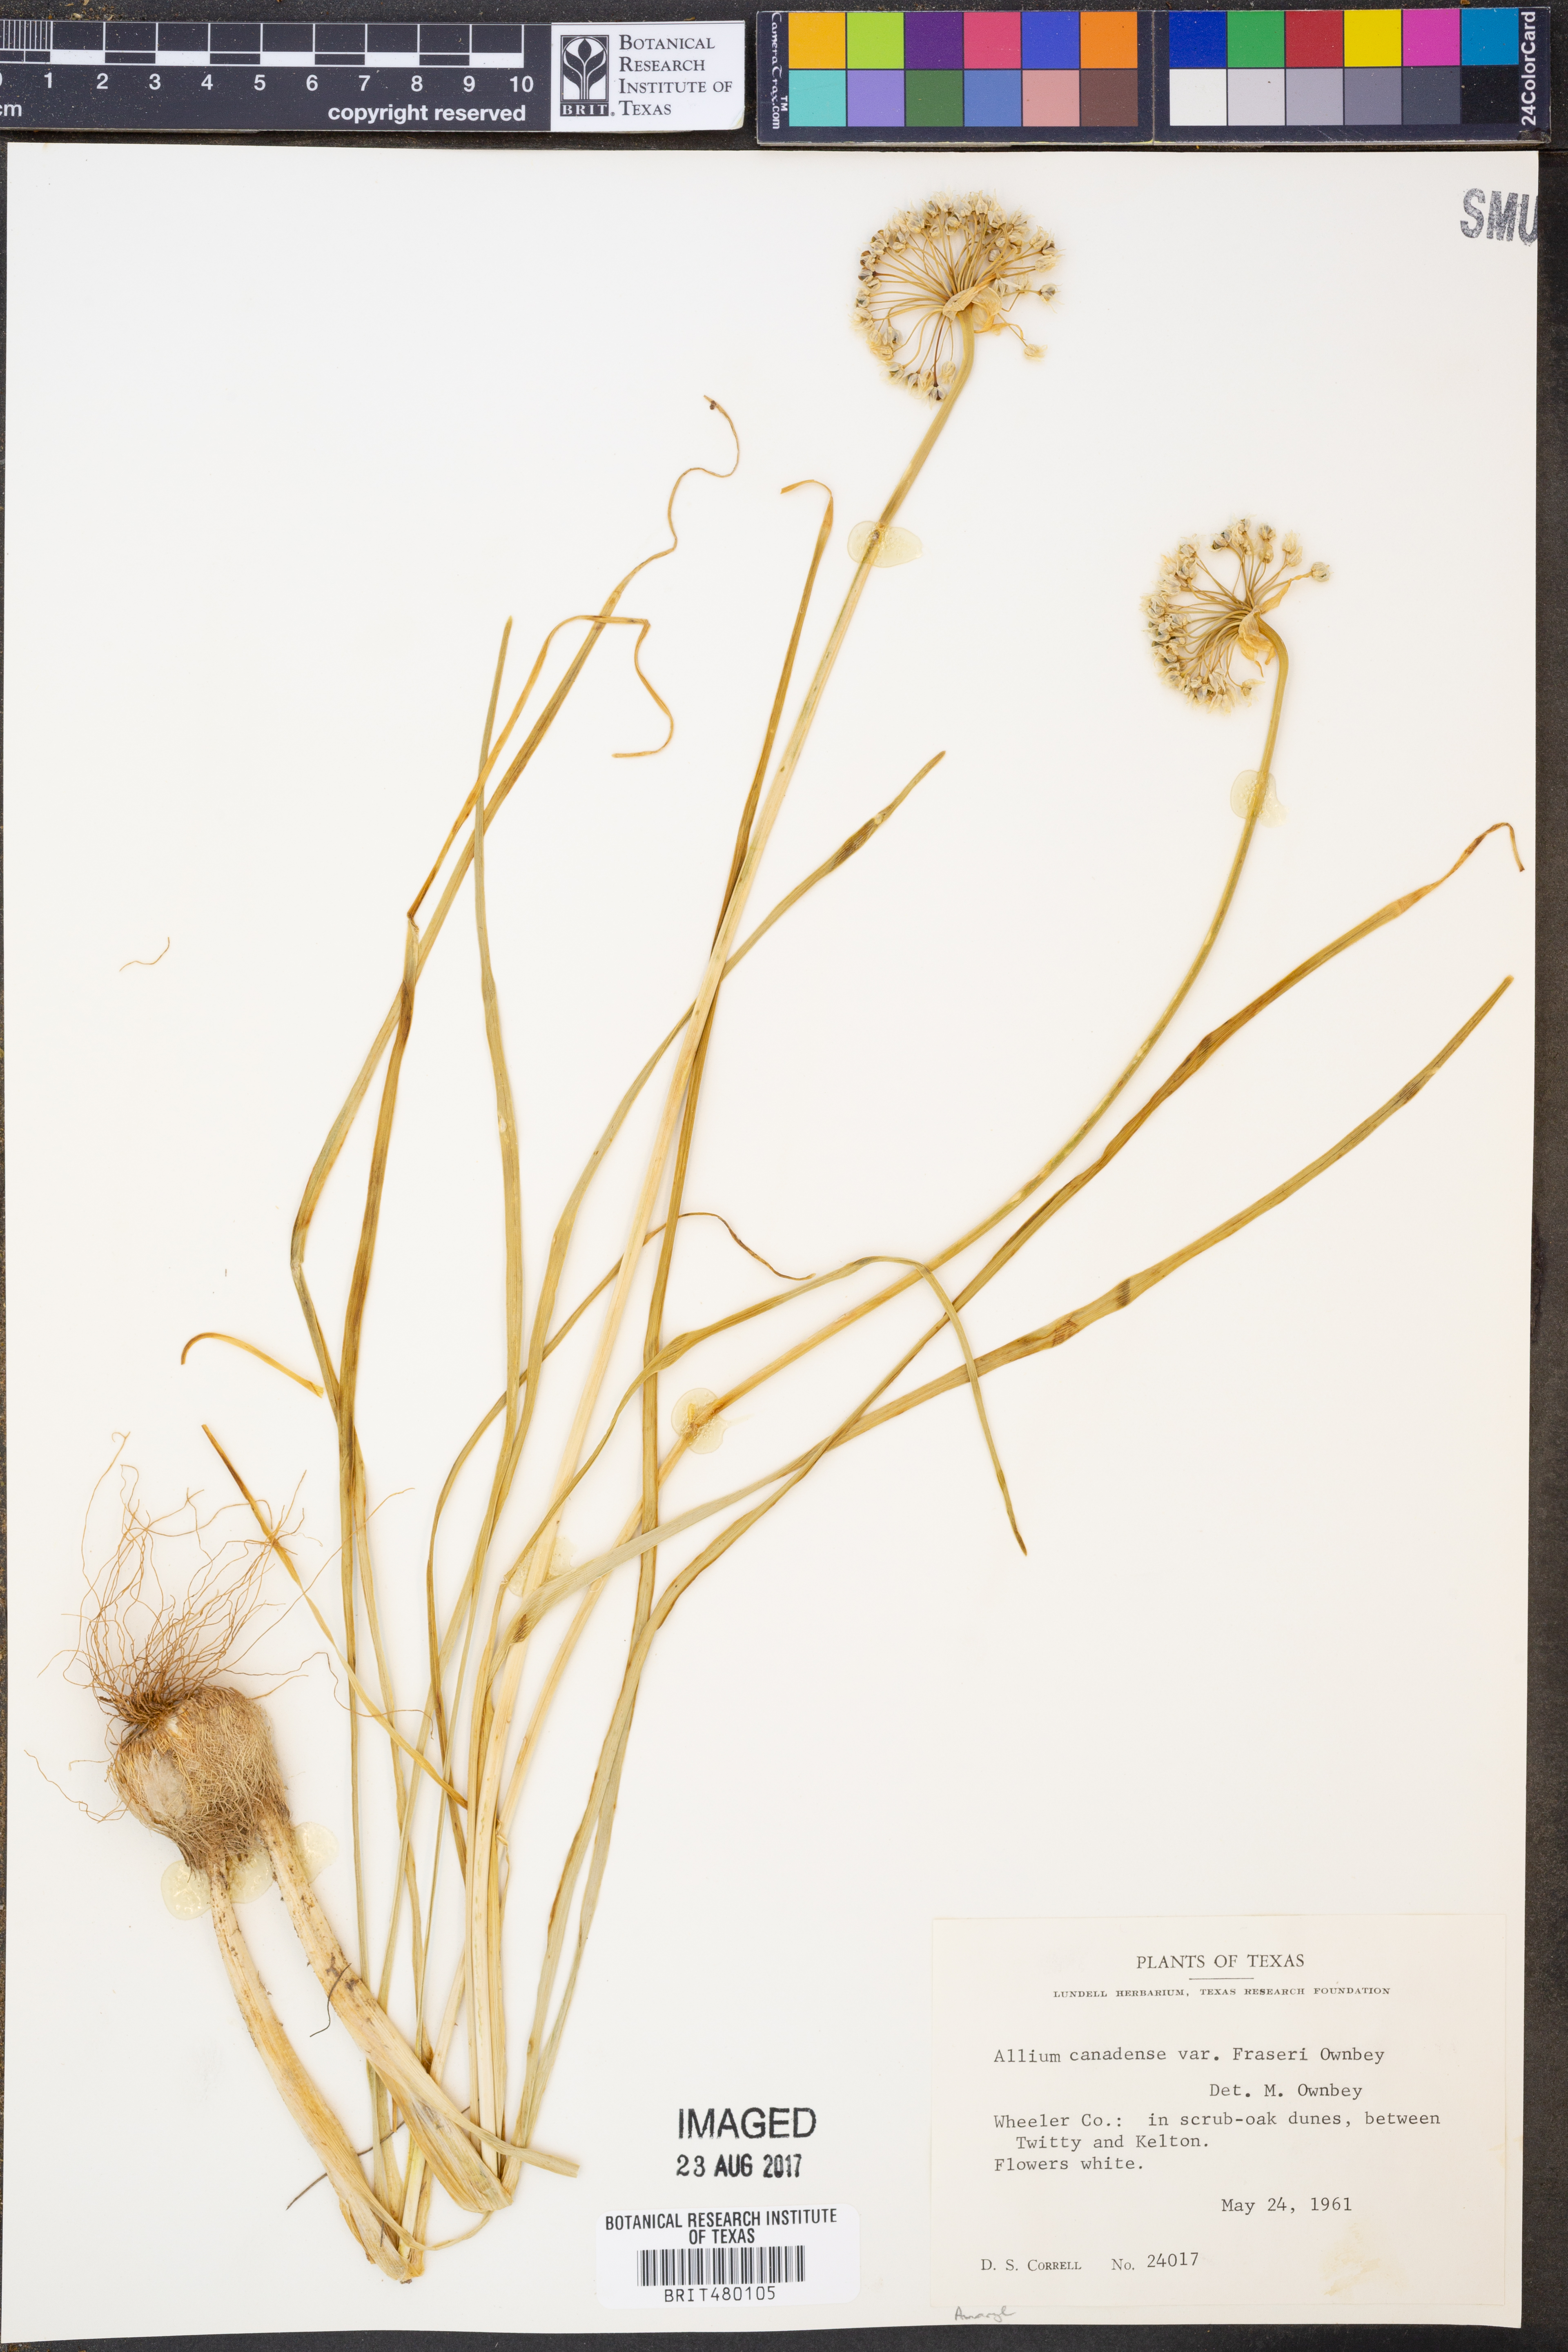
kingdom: Plantae
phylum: Tracheophyta
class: Liliopsida
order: Asparagales
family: Amaryllidaceae
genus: Allium
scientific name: Allium fraseri
